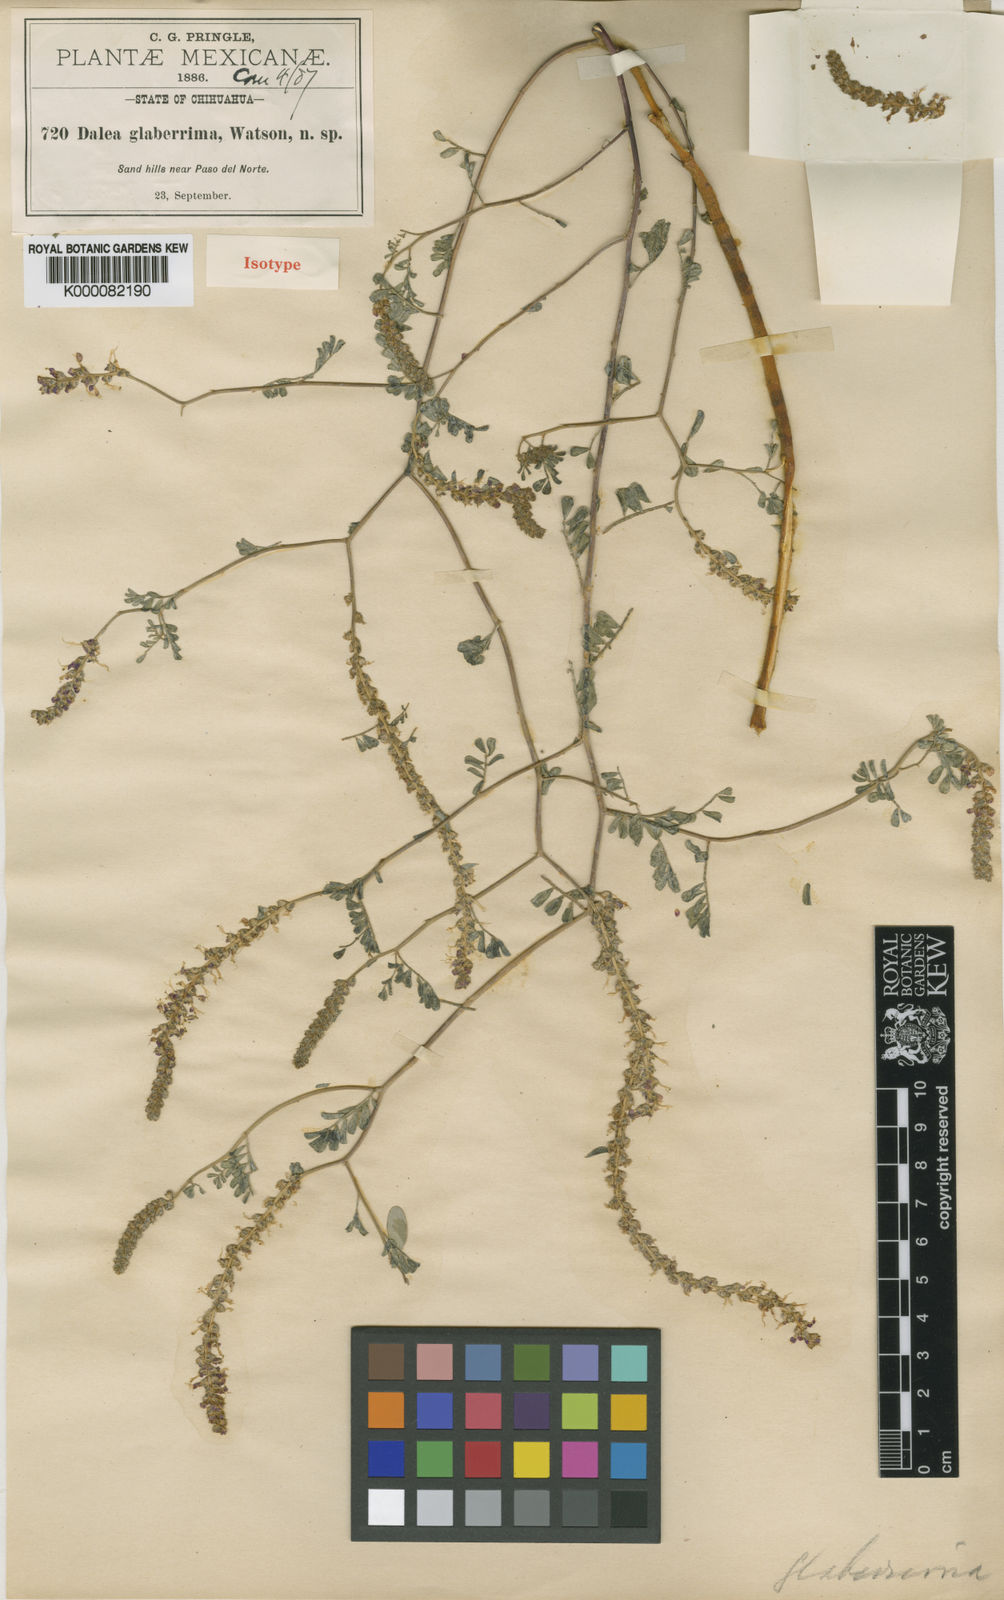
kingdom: Plantae
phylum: Tracheophyta
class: Magnoliopsida
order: Fabales
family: Fabaceae
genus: Dalea
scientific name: Dalea lanata
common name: Woolly dalea
